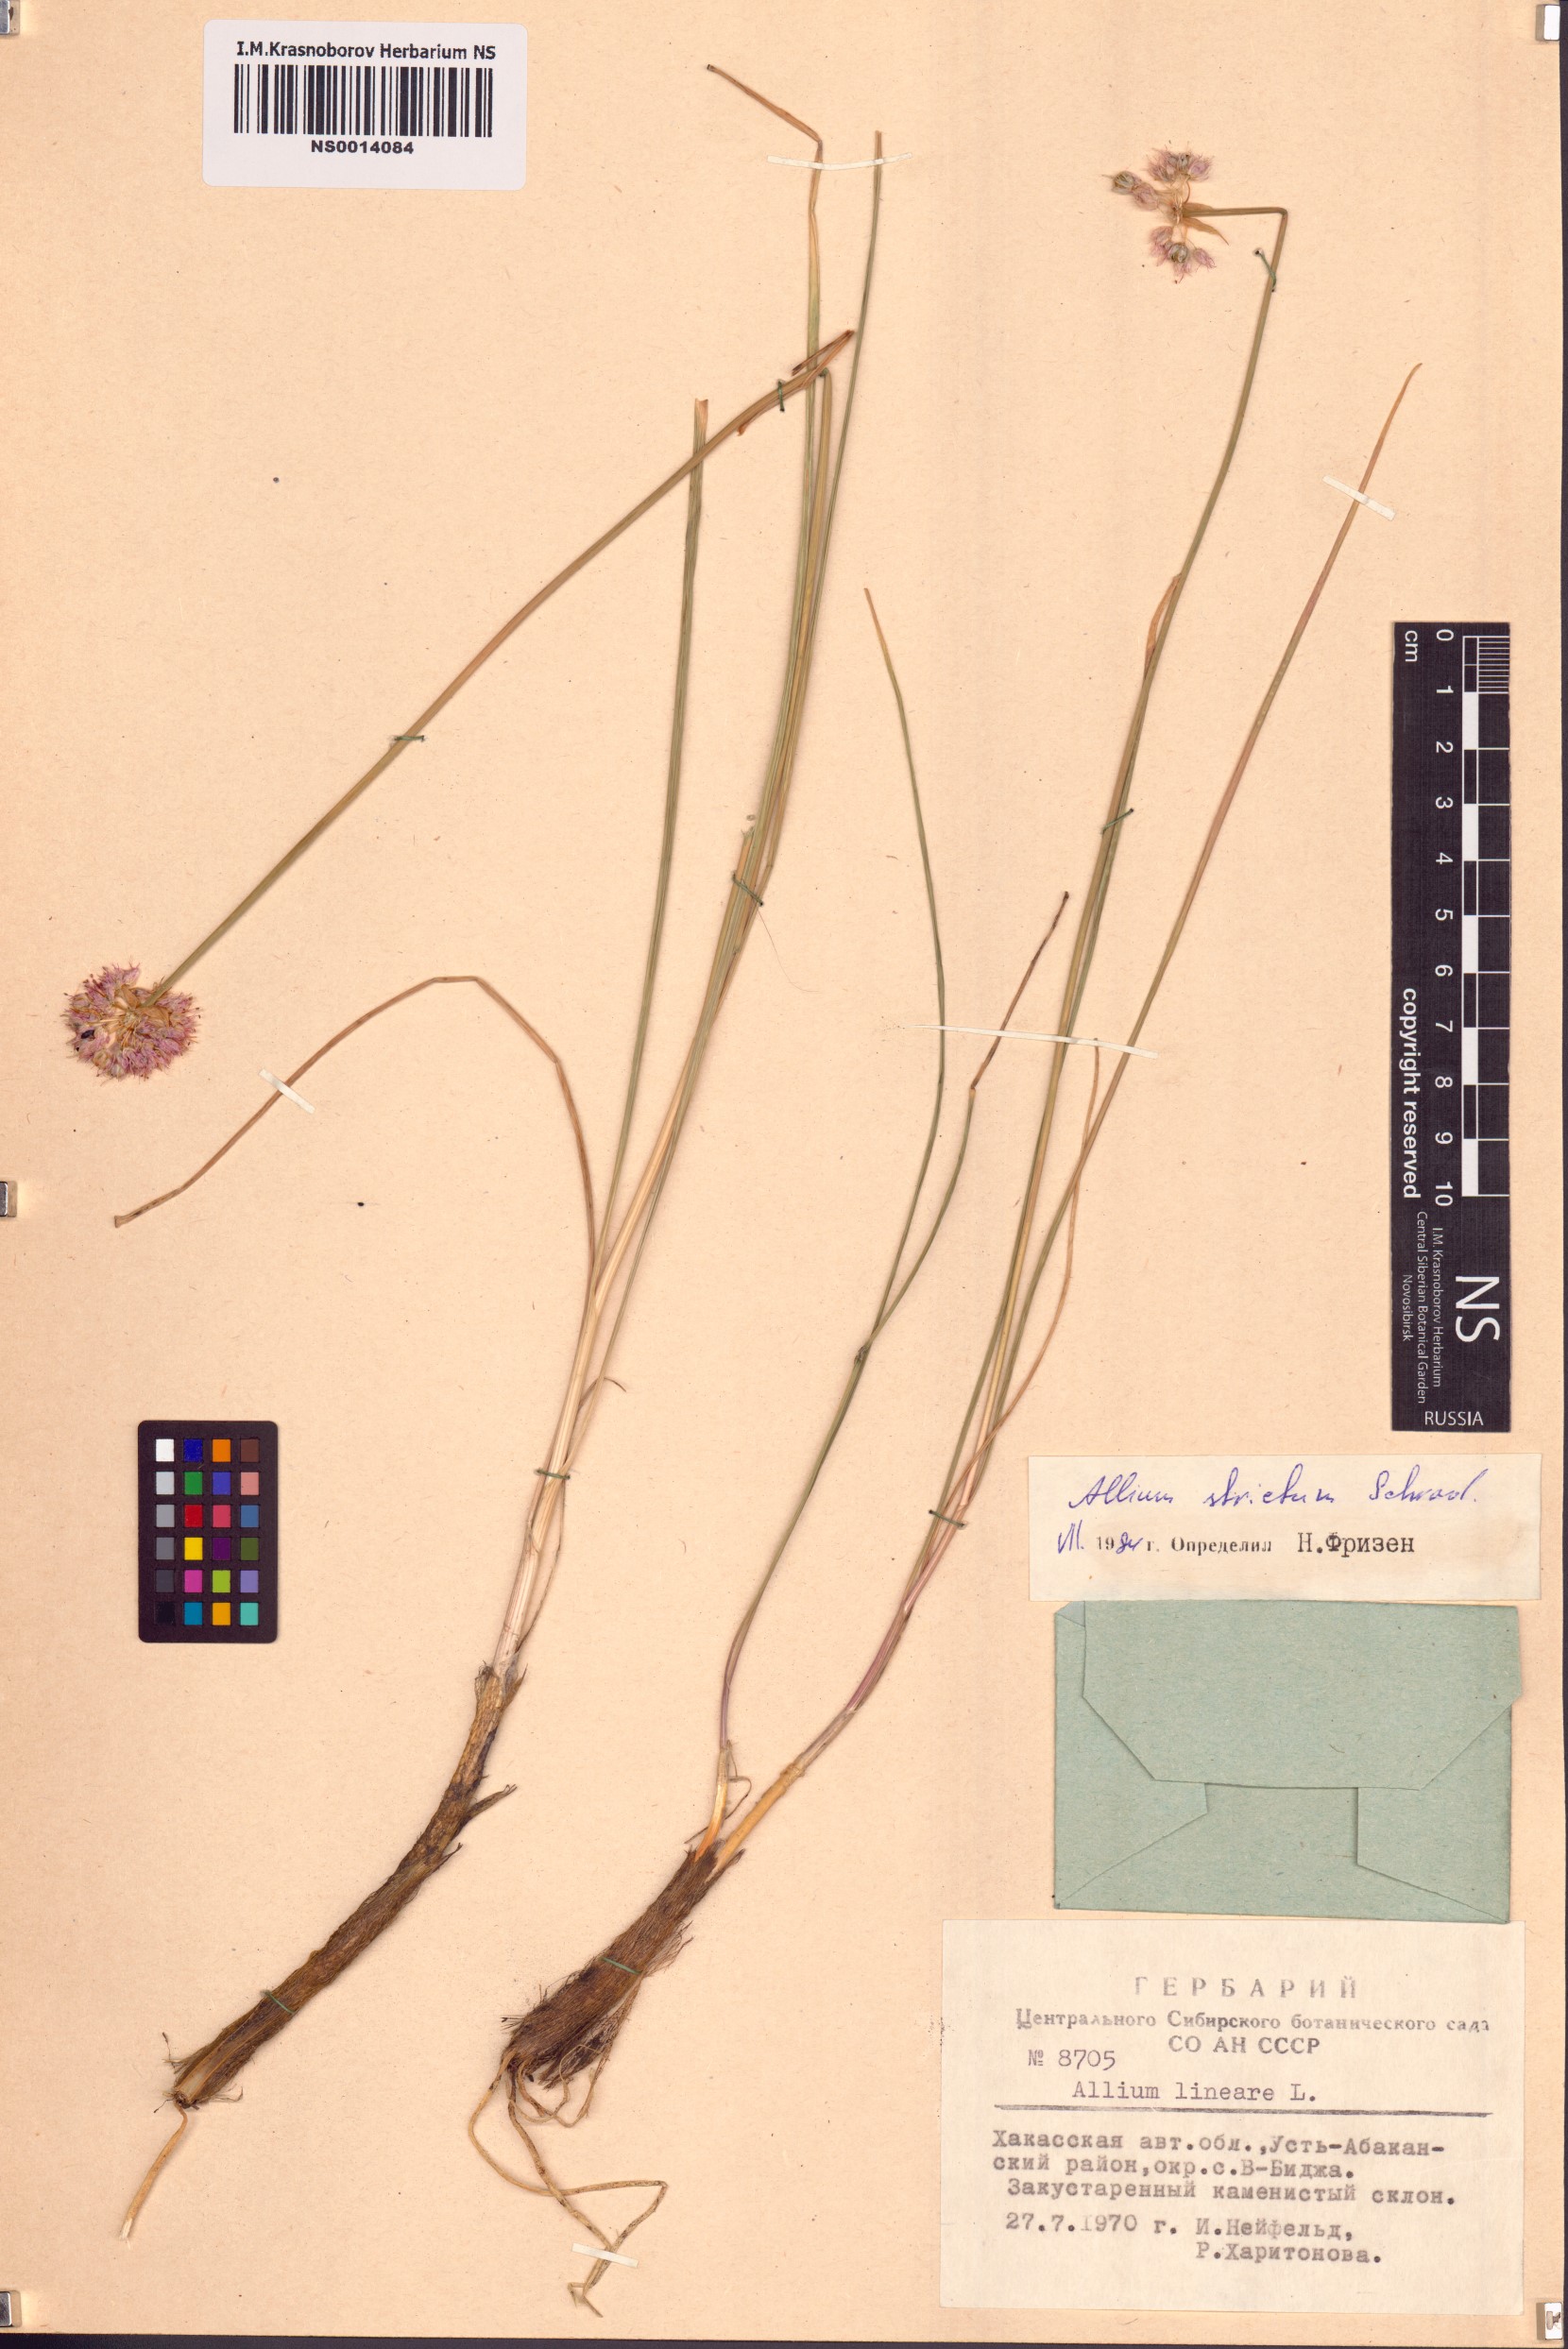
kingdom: Plantae
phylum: Tracheophyta
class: Liliopsida
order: Asparagales
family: Amaryllidaceae
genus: Allium
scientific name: Allium strictum
